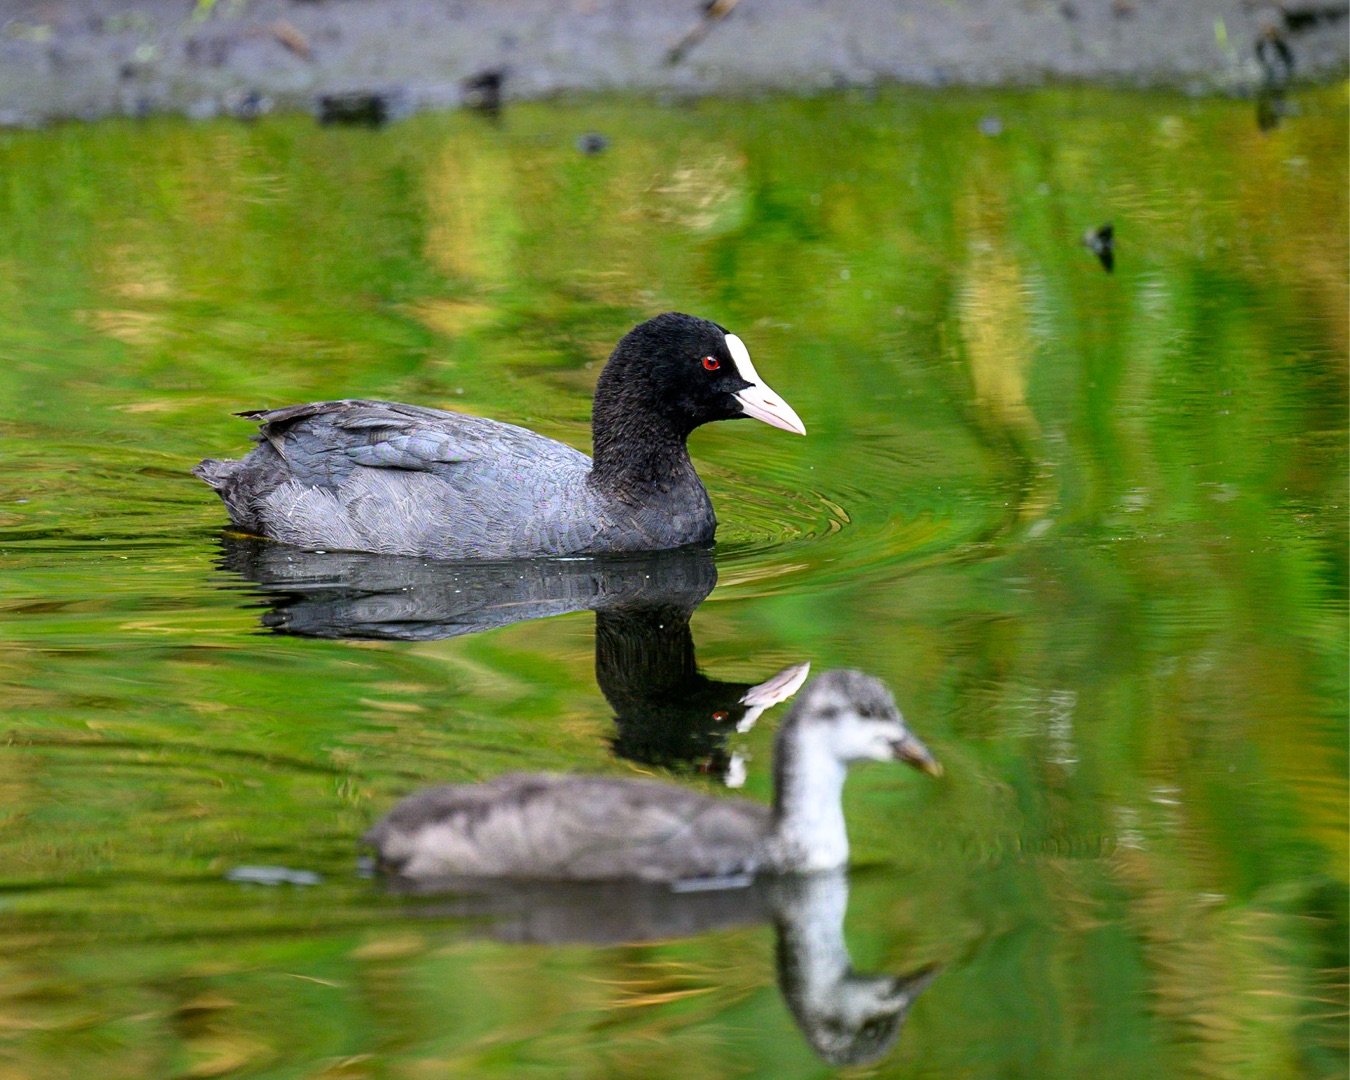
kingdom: Animalia
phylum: Chordata
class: Aves
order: Gruiformes
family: Rallidae
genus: Fulica
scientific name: Fulica atra
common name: Blishøne
